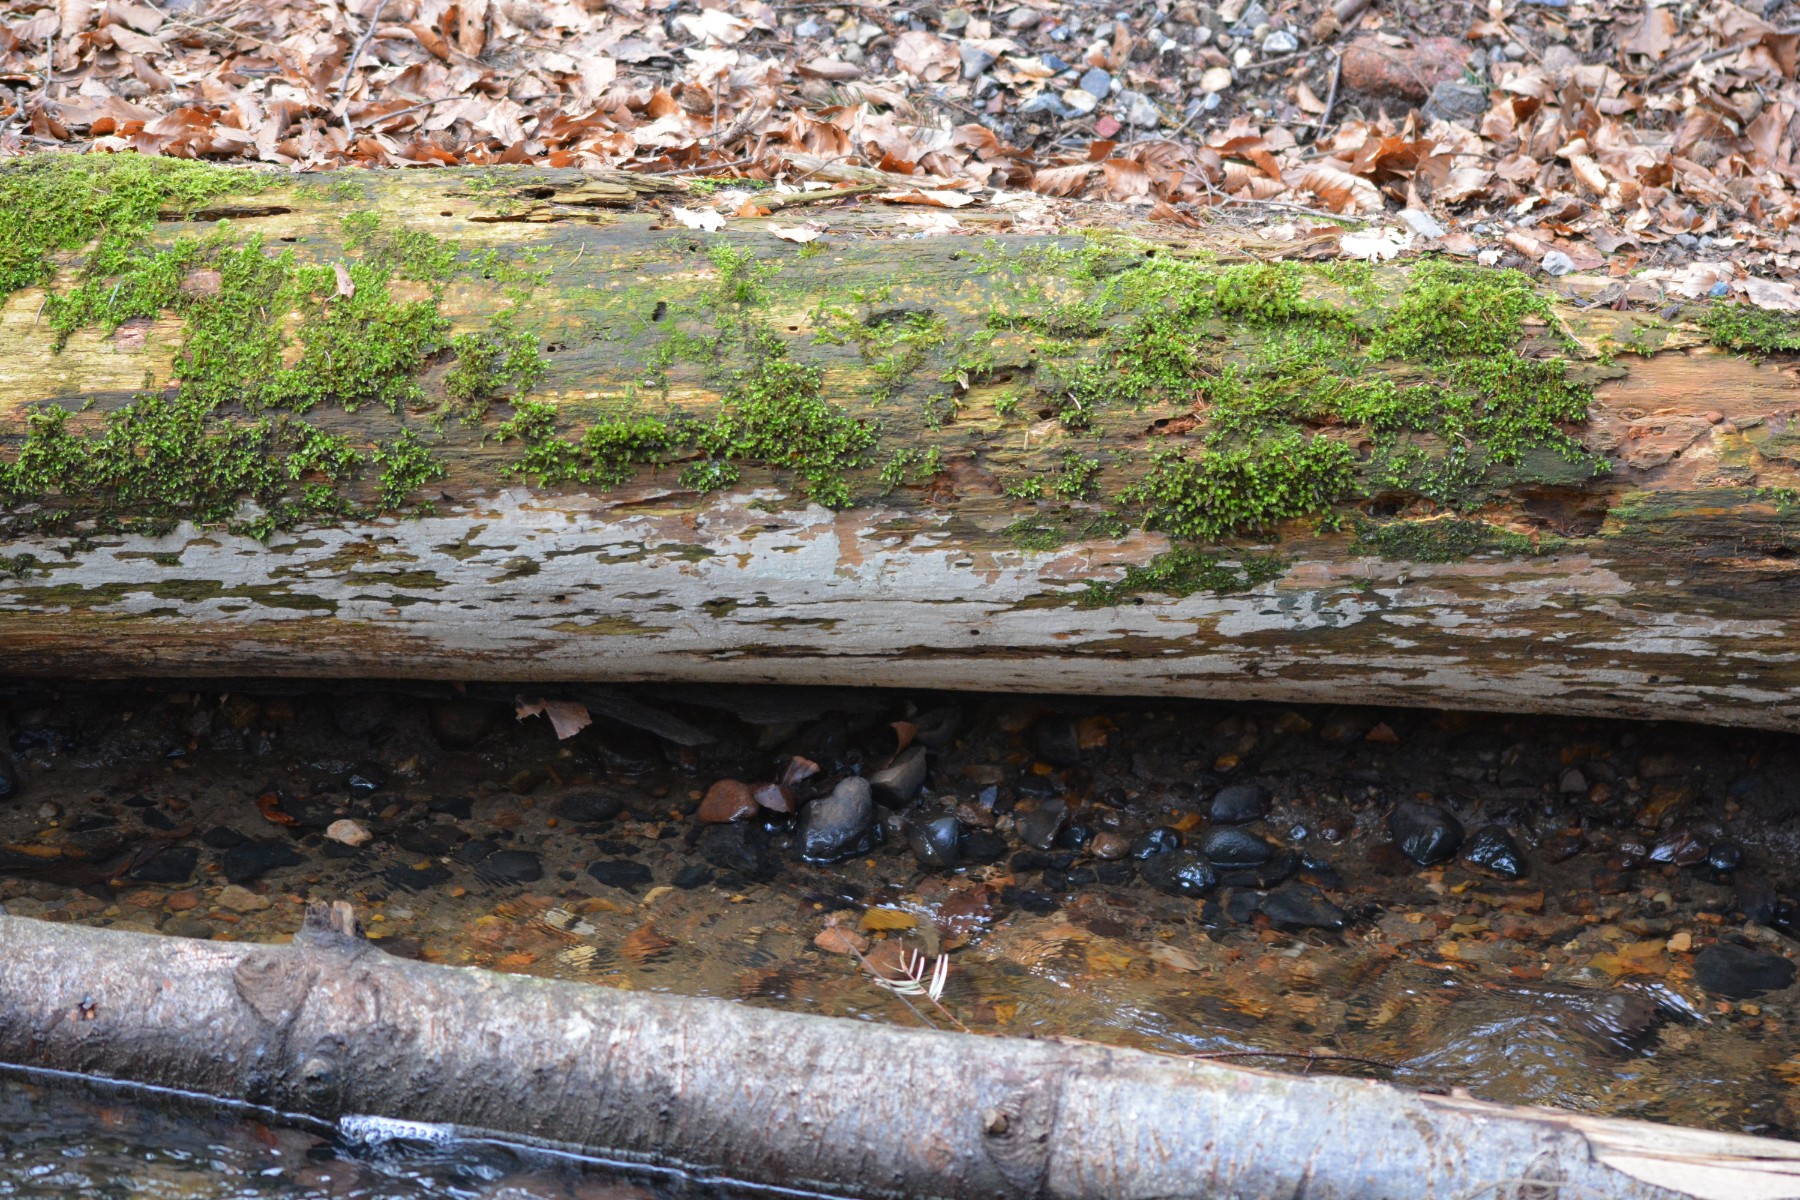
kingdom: Fungi
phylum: Basidiomycota
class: Agaricomycetes
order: Corticiales
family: Corticiaceae
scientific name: Corticiaceae
